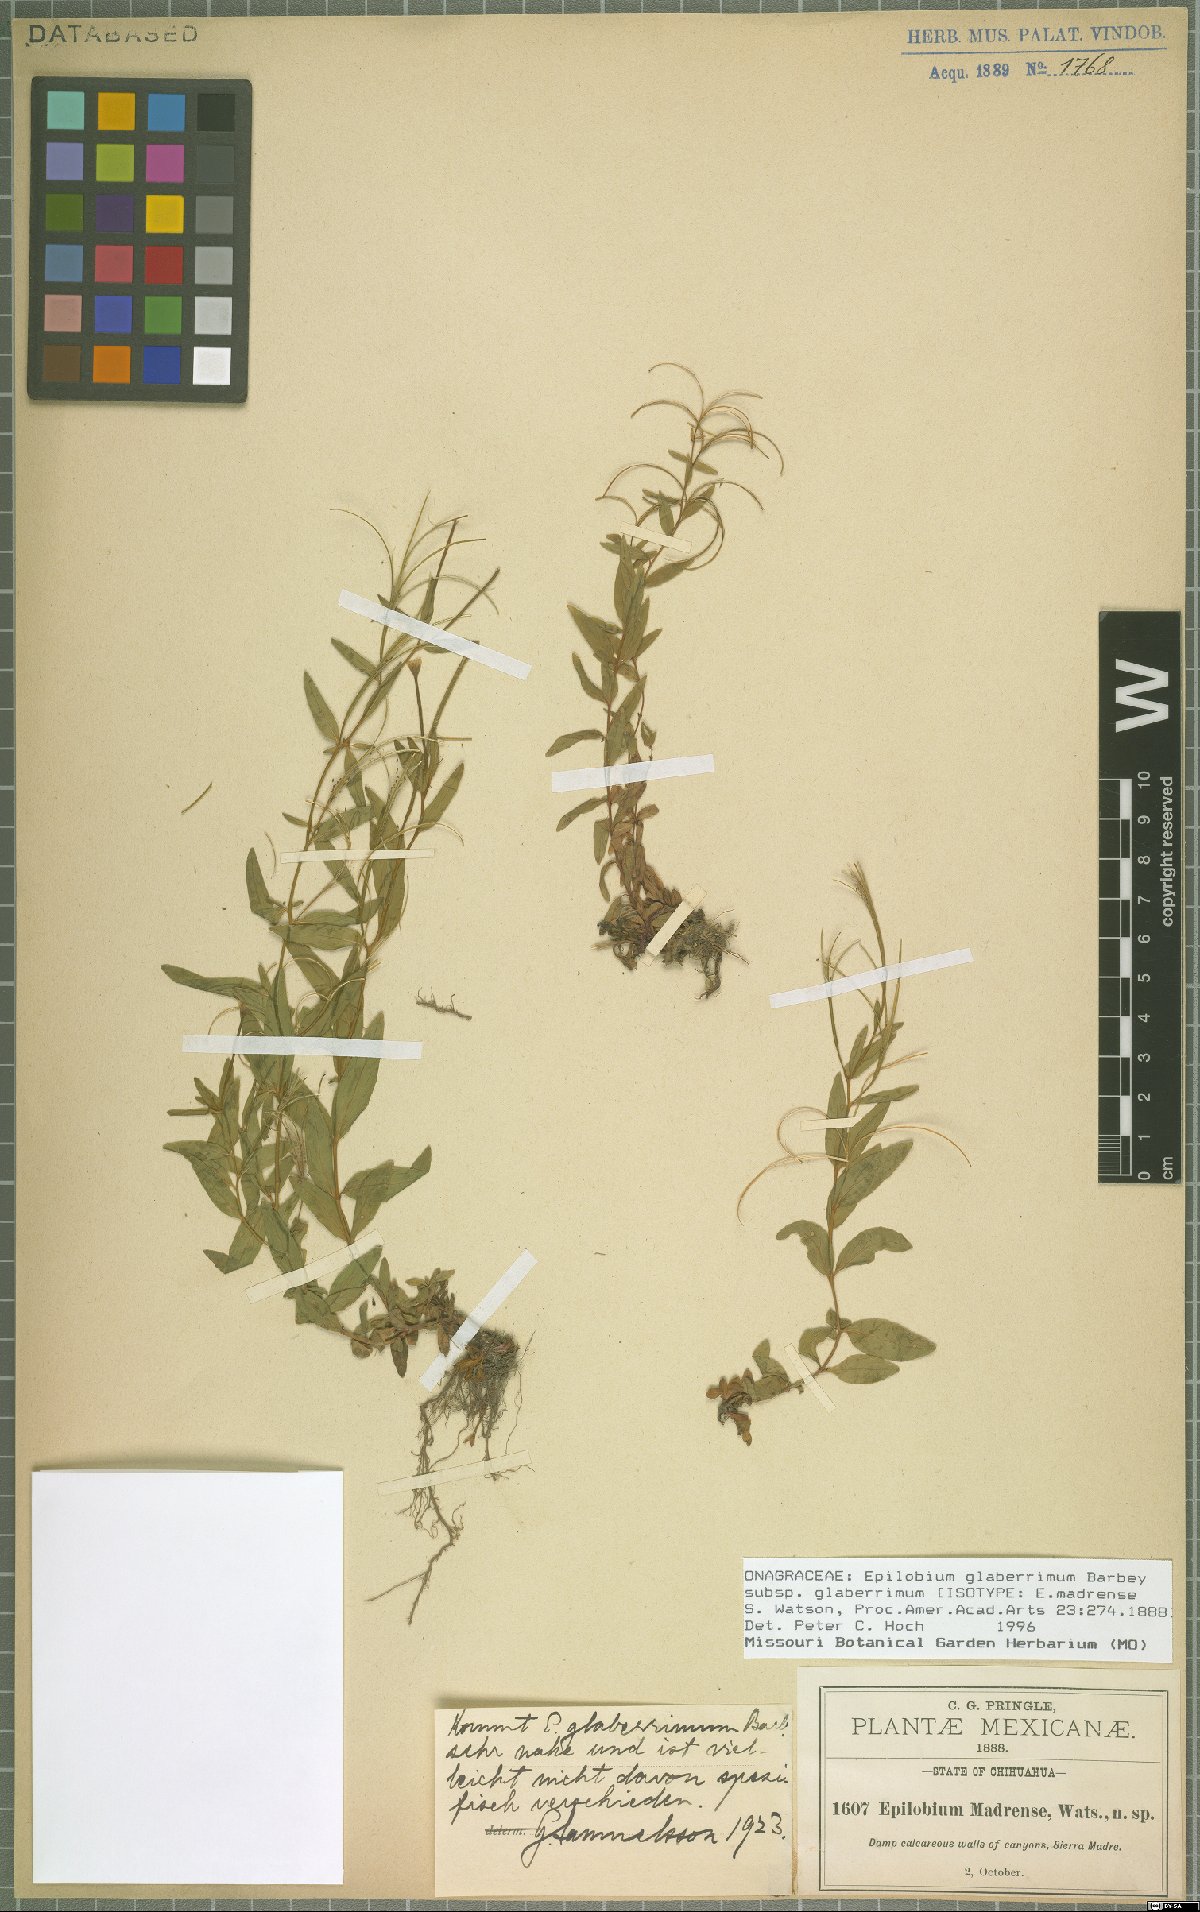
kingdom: Plantae
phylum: Tracheophyta
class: Magnoliopsida
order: Myrtales
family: Onagraceae
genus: Epilobium
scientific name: Epilobium glaberrimum
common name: Glaucous willowherb
